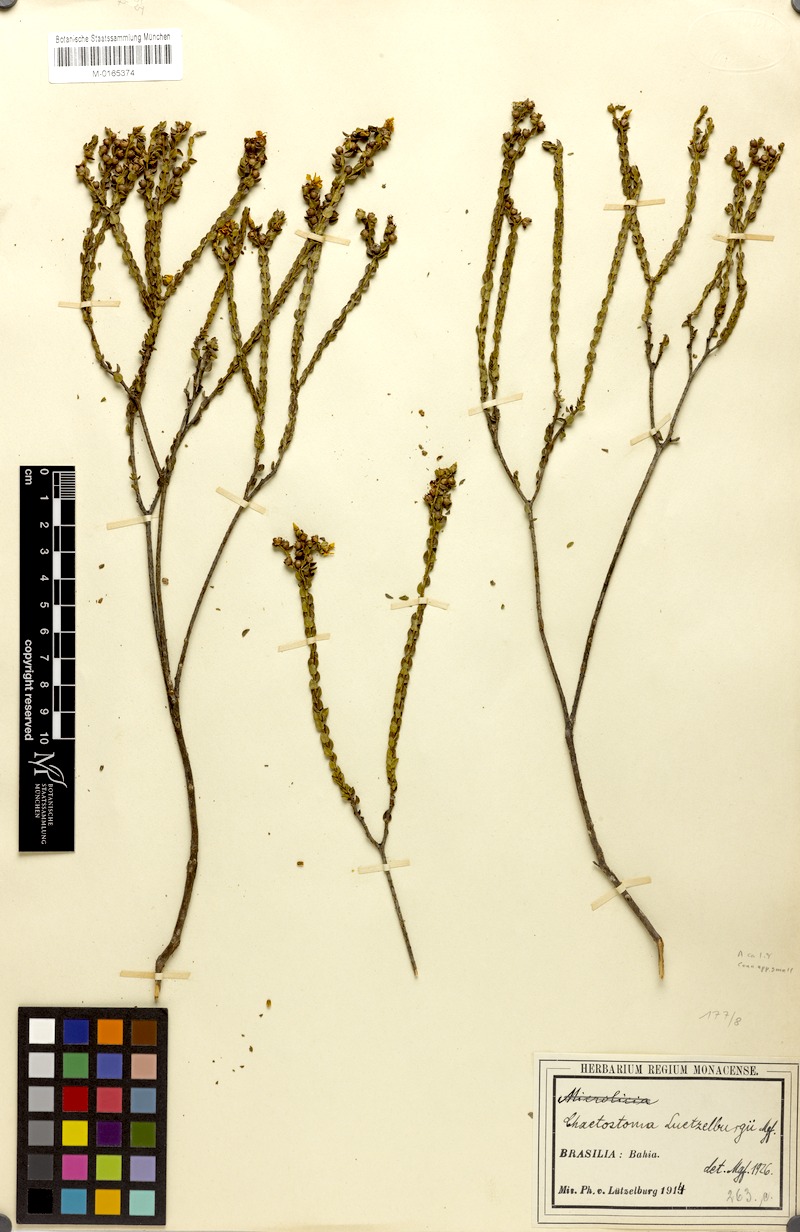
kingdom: Plantae
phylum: Tracheophyta
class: Magnoliopsida
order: Myrtales
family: Melastomataceae
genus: Microlicia
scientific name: Microlicia semiriana
